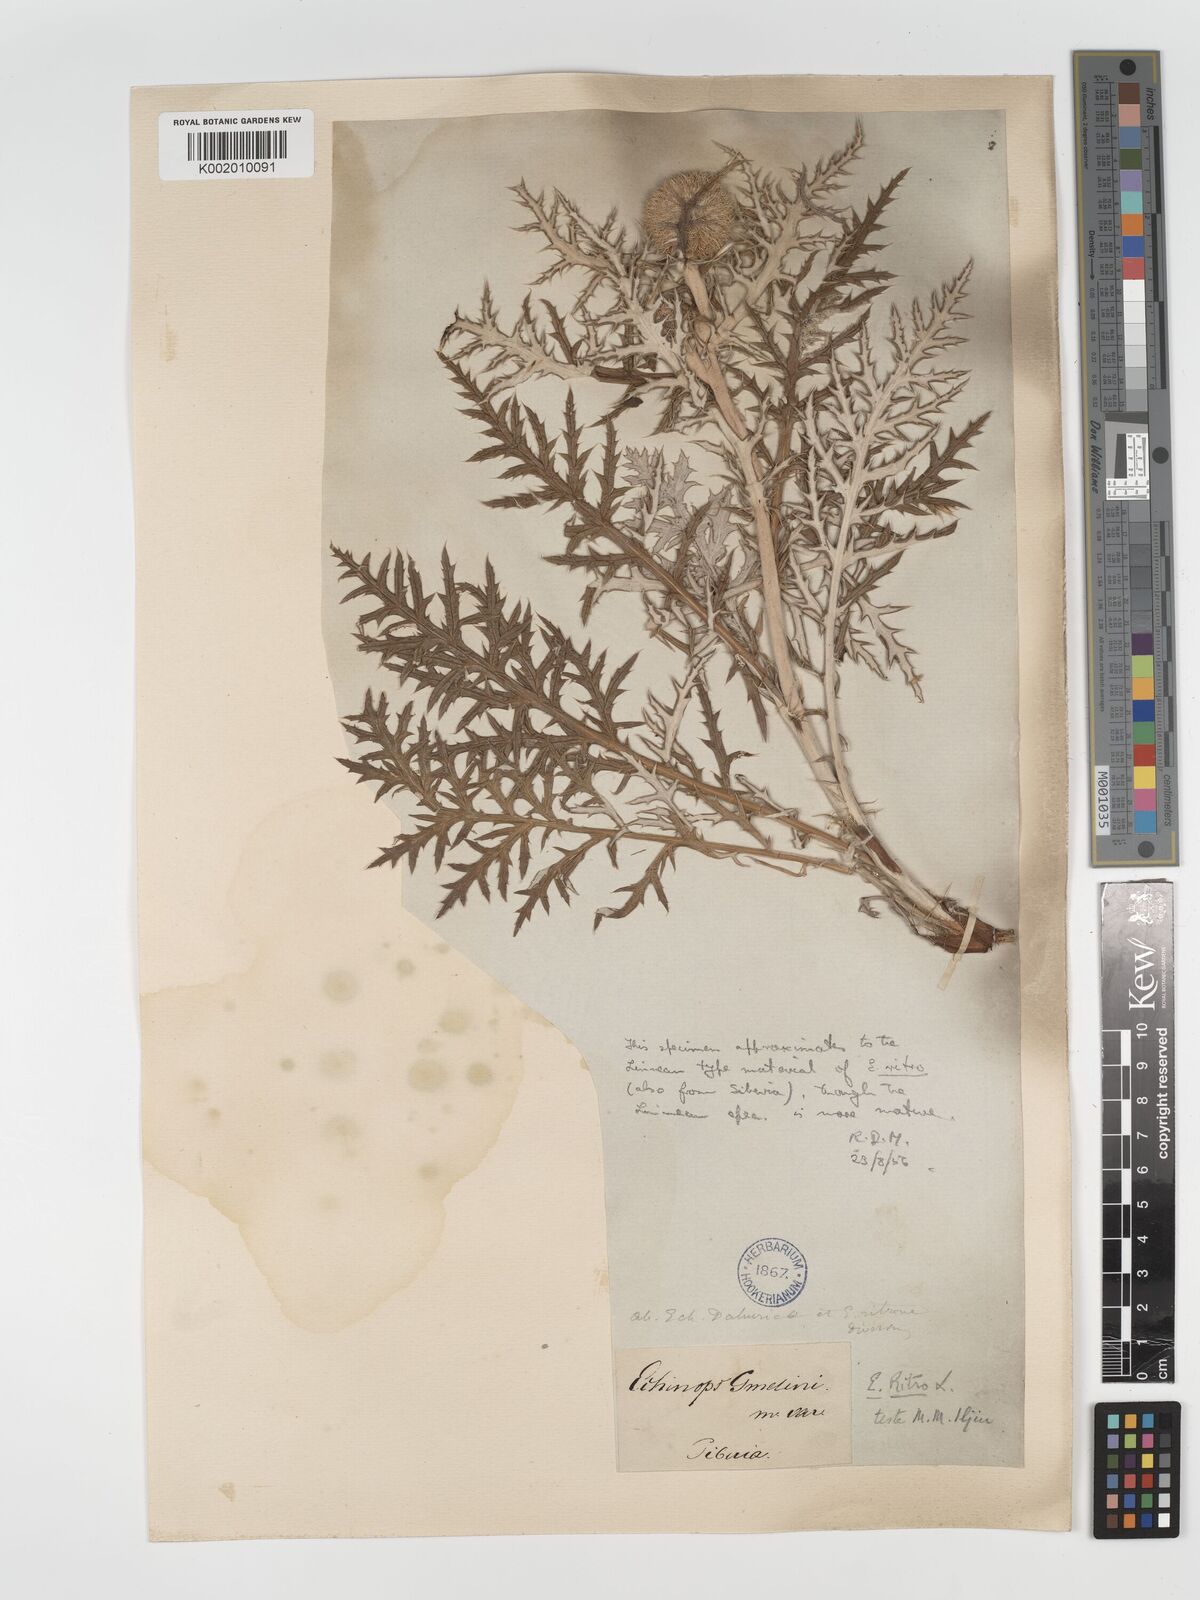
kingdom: Plantae
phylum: Tracheophyta
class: Magnoliopsida
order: Asterales
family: Asteraceae
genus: Echinops
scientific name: Echinops bannaticus
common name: Blue globe-thistle
